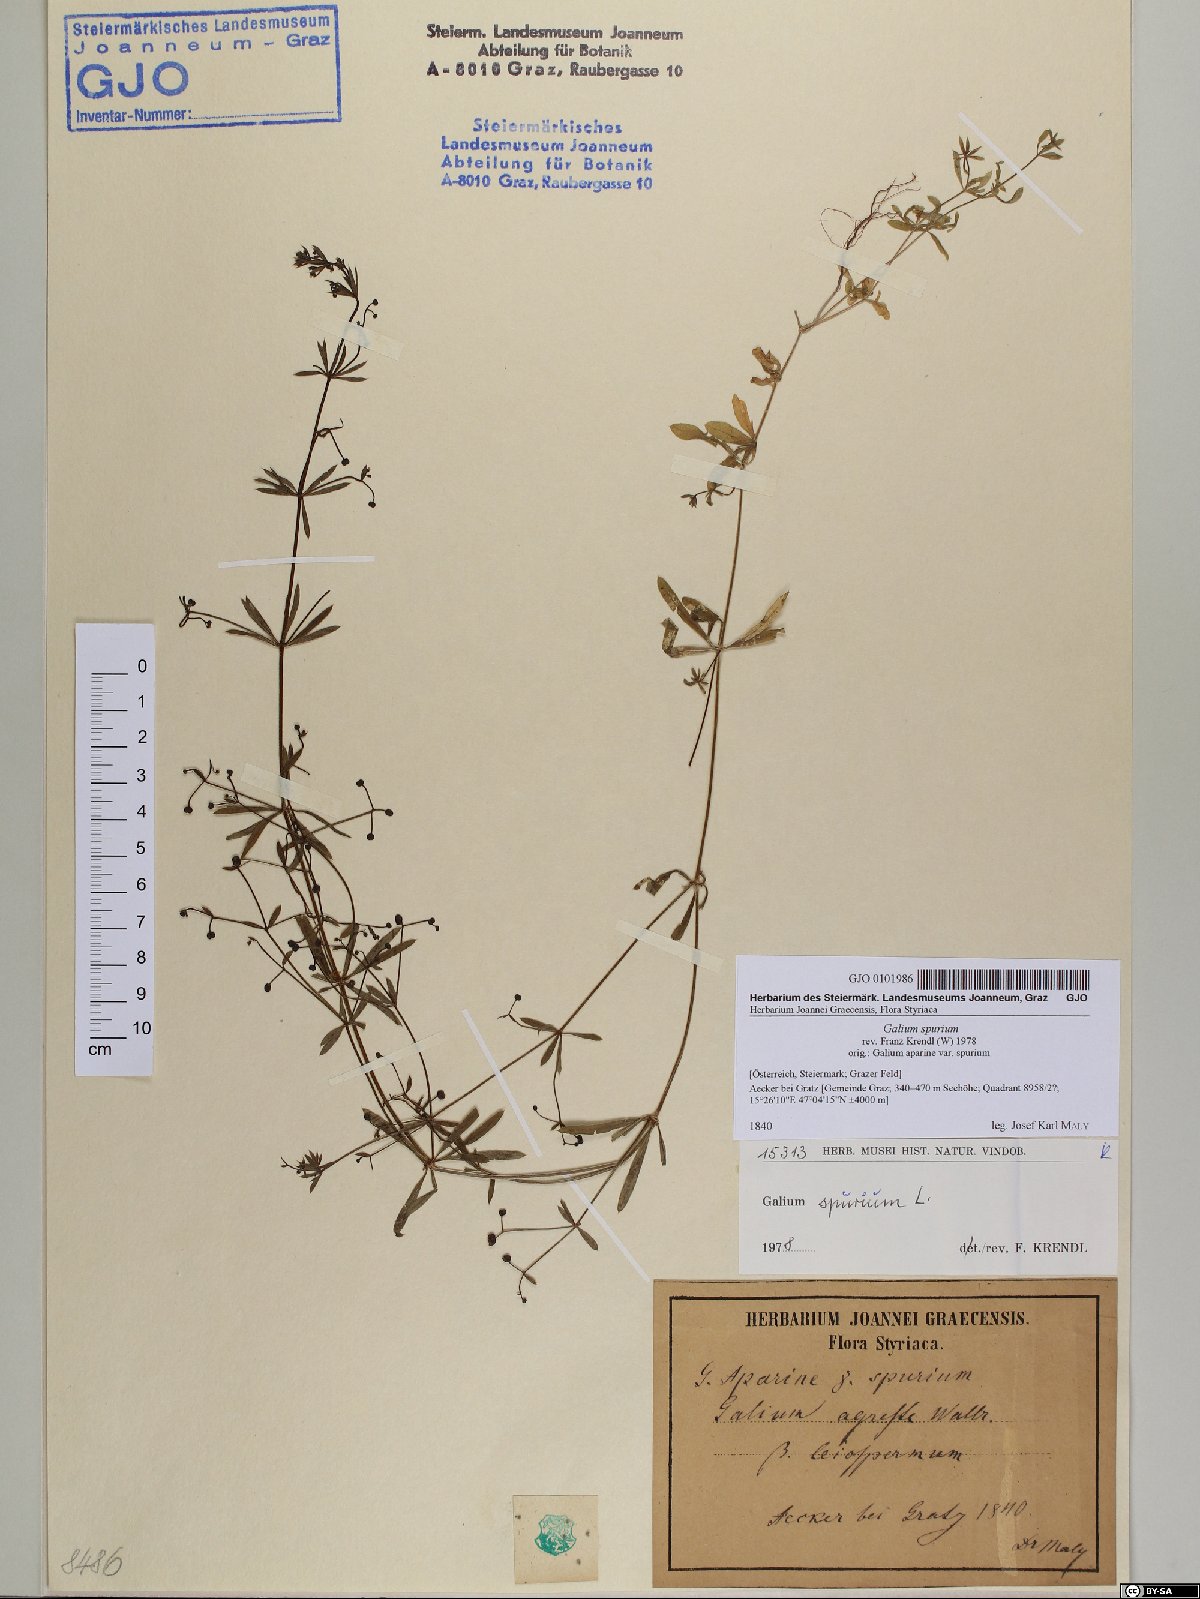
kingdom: Plantae
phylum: Tracheophyta
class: Magnoliopsida
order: Gentianales
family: Rubiaceae
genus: Galium
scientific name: Galium spurium
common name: False cleavers
